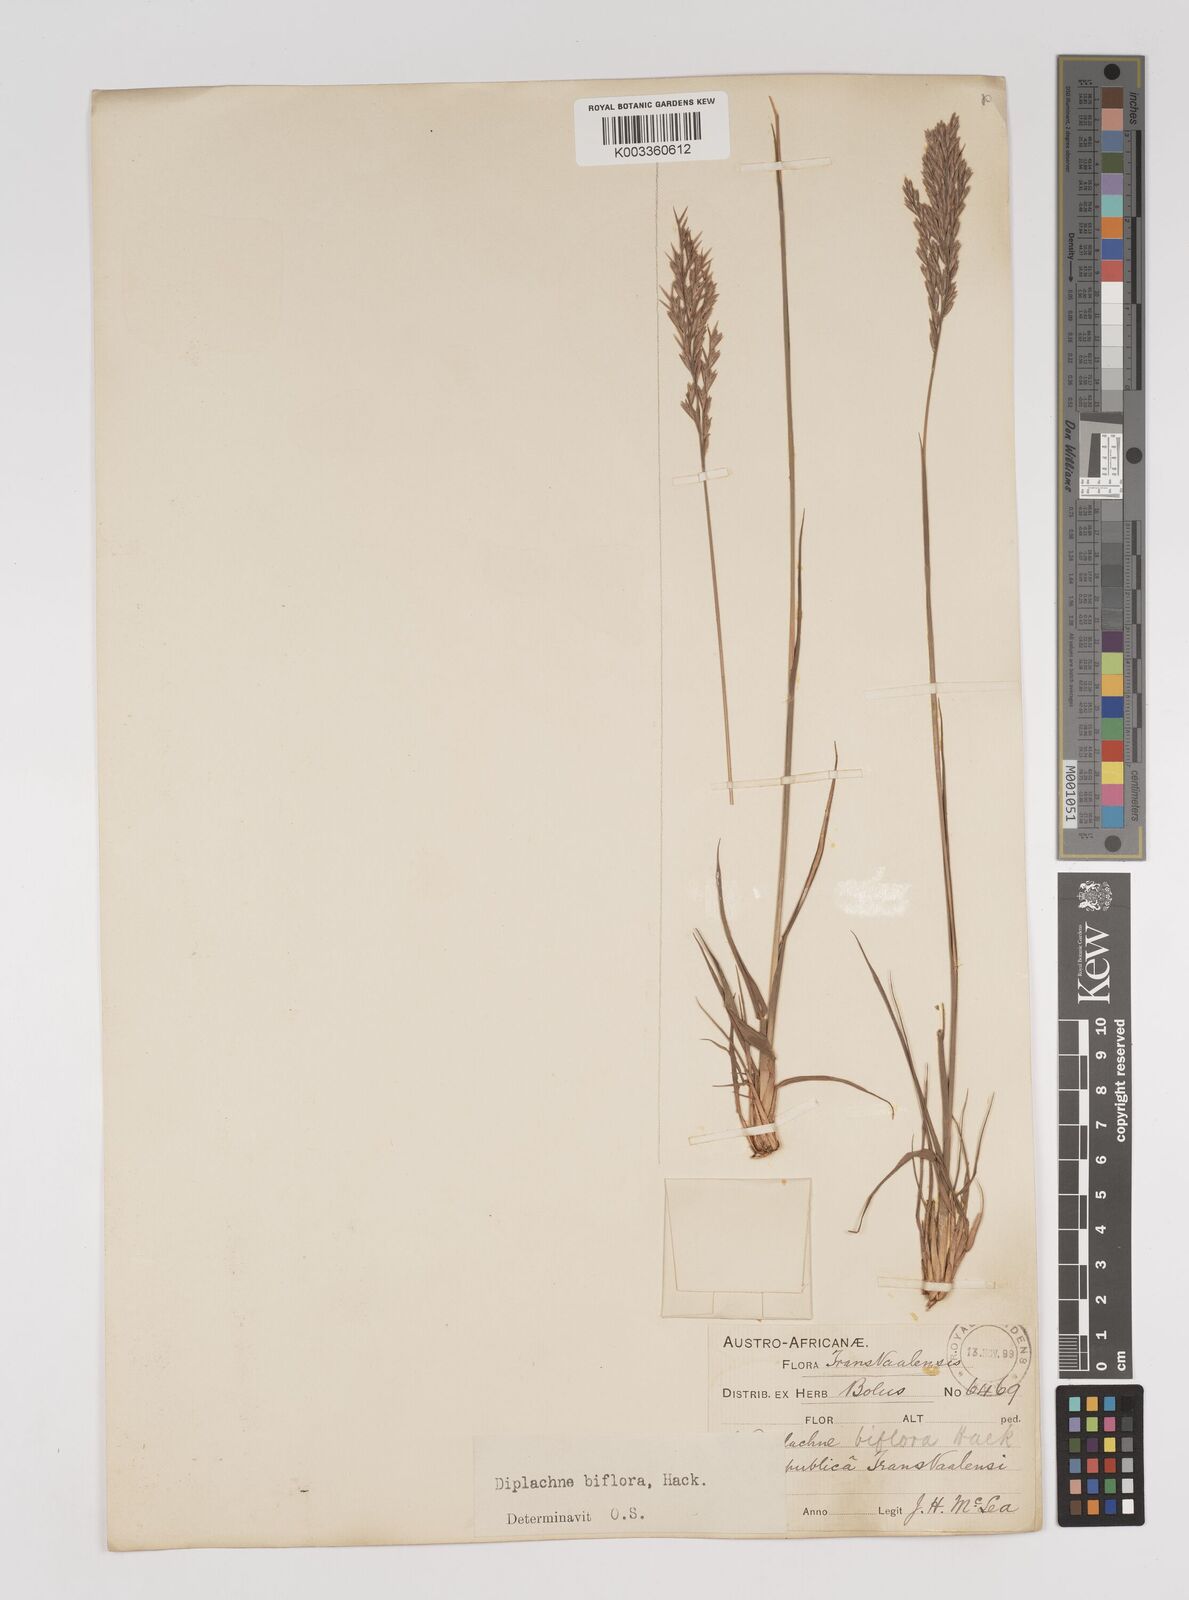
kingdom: Plantae
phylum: Tracheophyta
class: Liliopsida
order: Poales
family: Poaceae
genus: Bewsia
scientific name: Bewsia biflora
